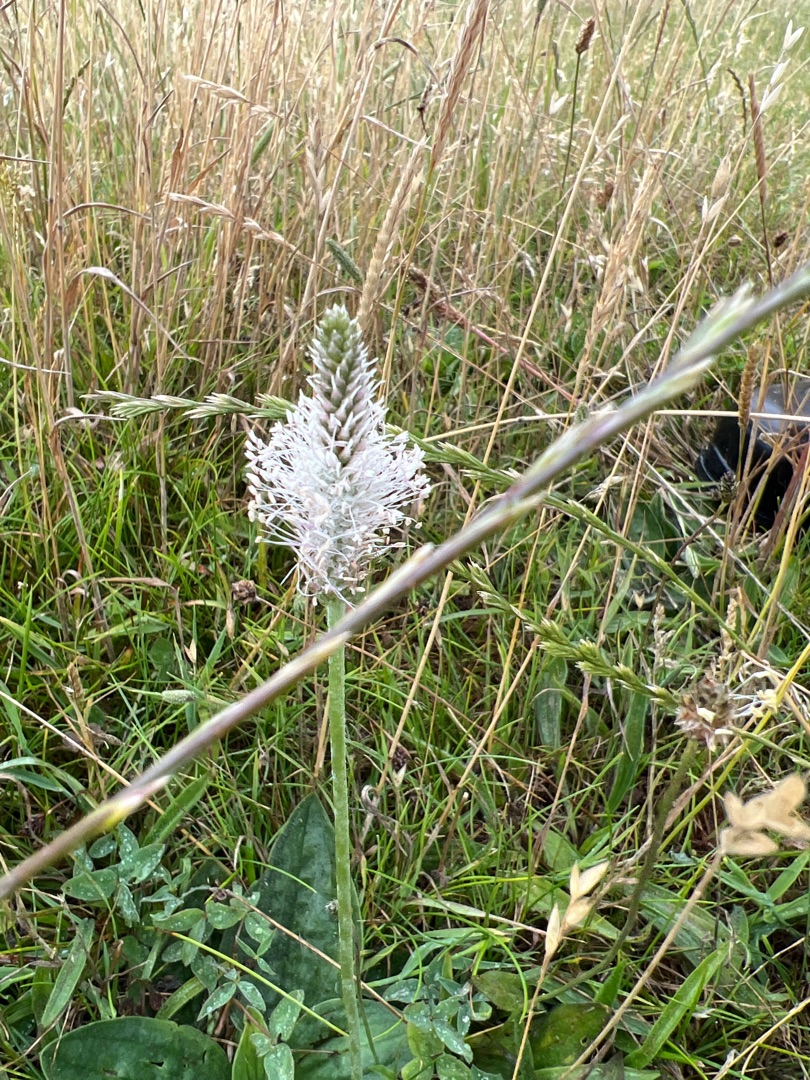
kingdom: Plantae
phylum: Tracheophyta
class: Magnoliopsida
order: Lamiales
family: Plantaginaceae
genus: Plantago
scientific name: Plantago media
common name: Dunet vejbred
